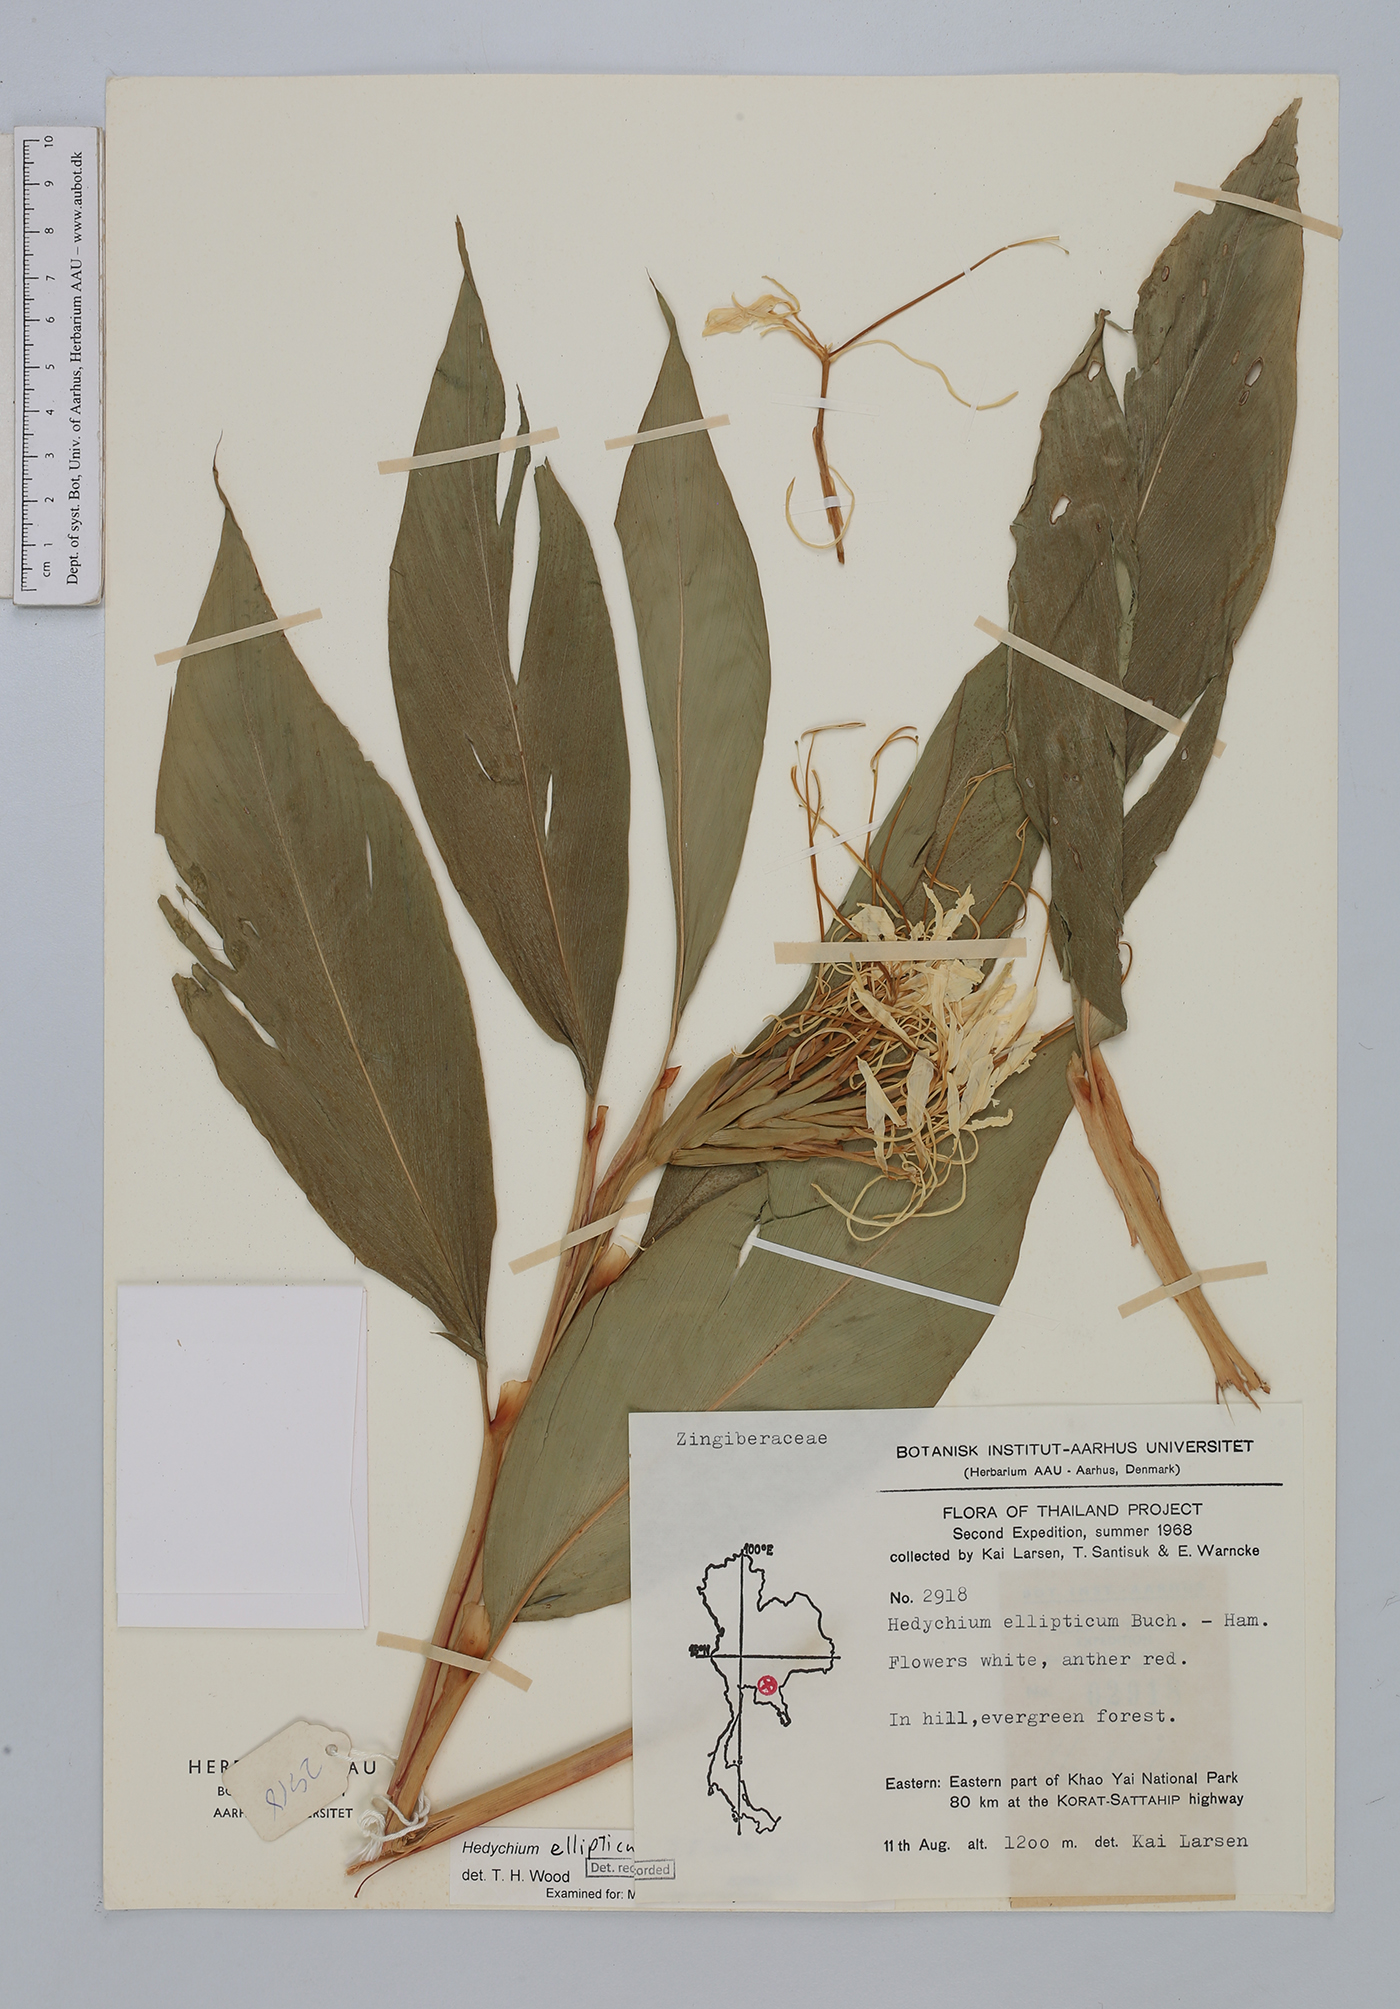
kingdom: Plantae
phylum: Tracheophyta
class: Liliopsida
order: Zingiberales
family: Zingiberaceae
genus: Hedychium
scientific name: Hedychium ellipticum
